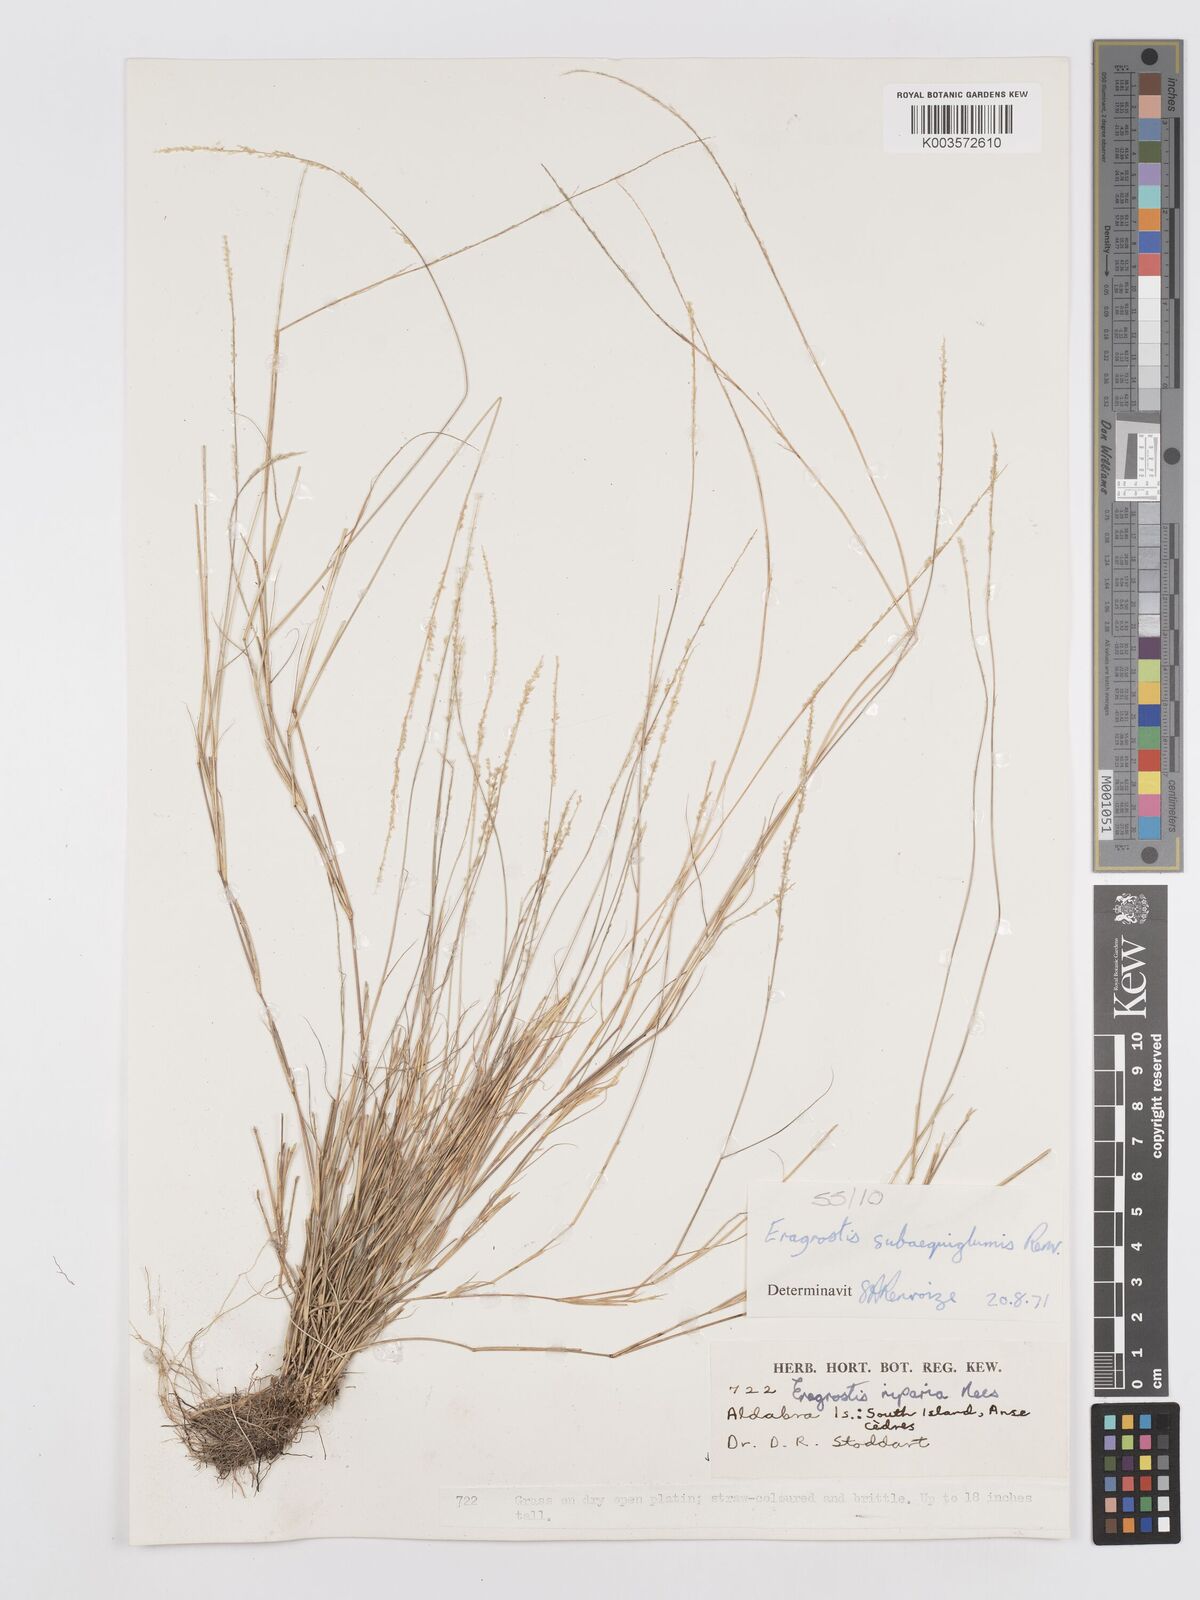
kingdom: Plantae
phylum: Tracheophyta
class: Liliopsida
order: Poales
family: Poaceae
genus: Eragrostis
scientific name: Eragrostis subaequiglumis
